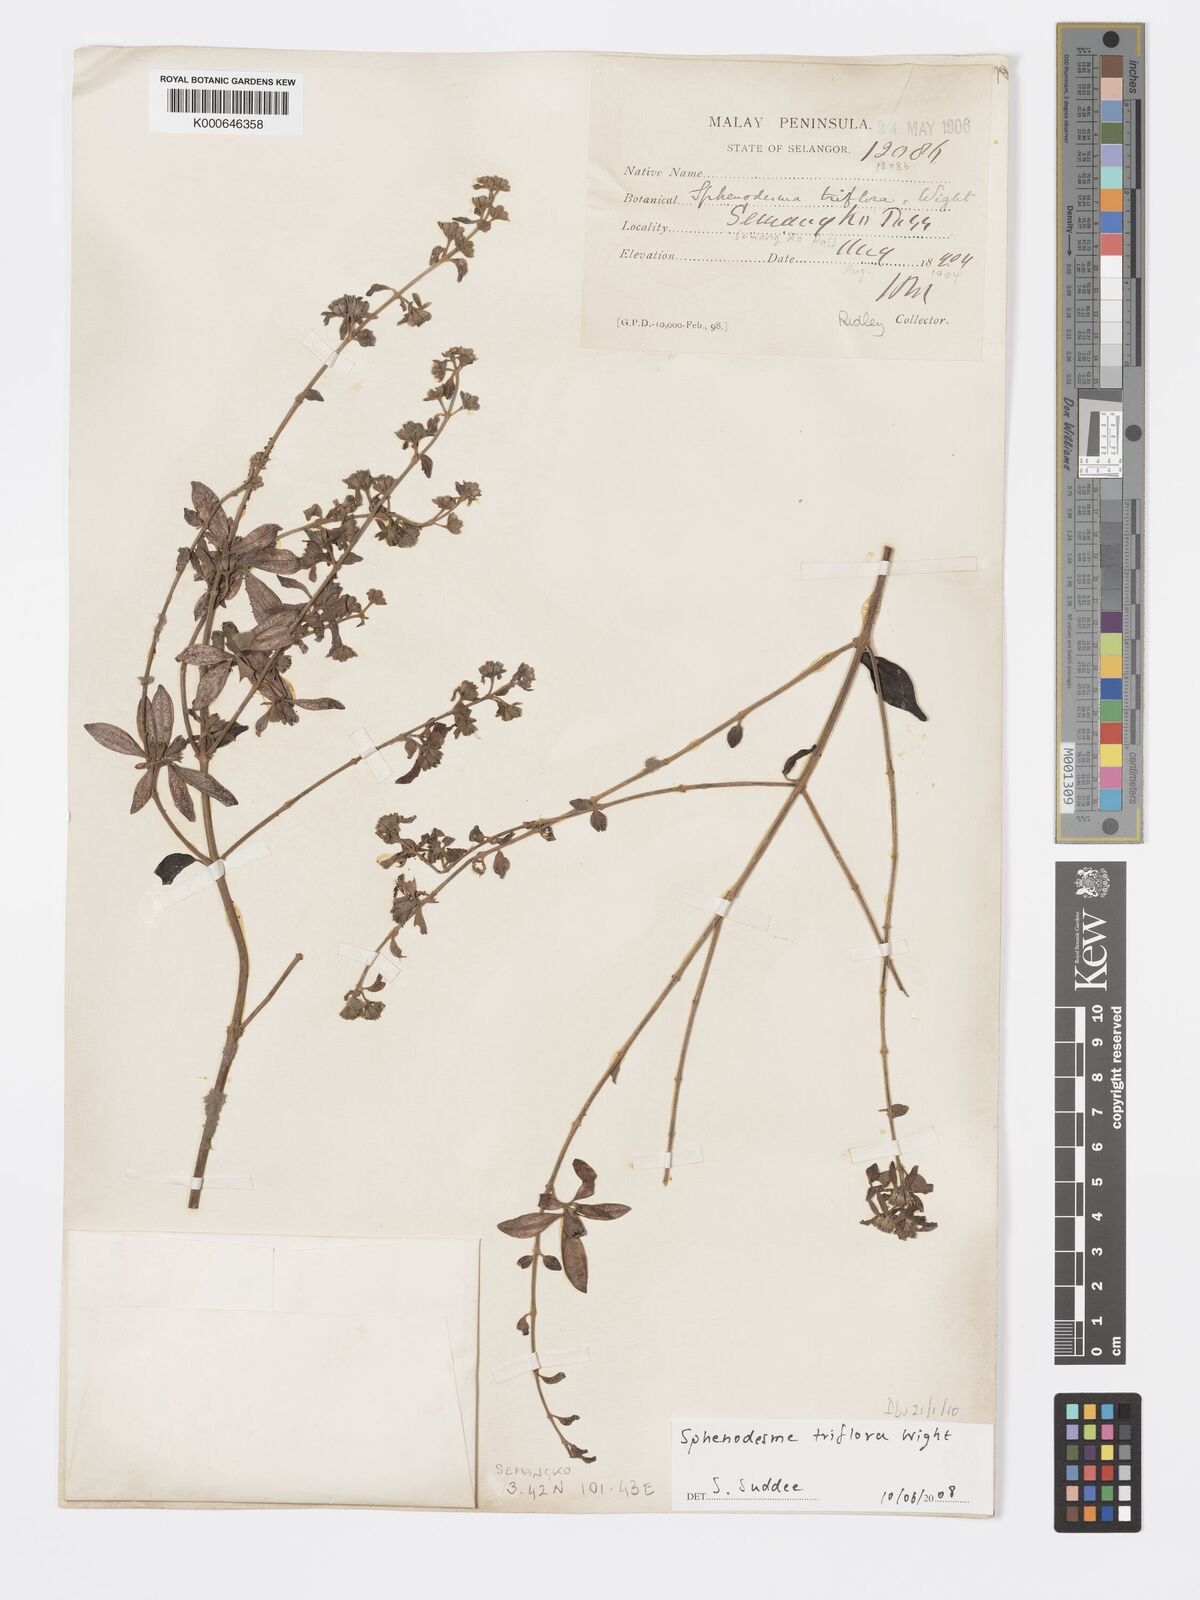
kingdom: Plantae
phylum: Tracheophyta
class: Magnoliopsida
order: Lamiales
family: Lamiaceae
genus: Sphenodesme
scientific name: Sphenodesme
